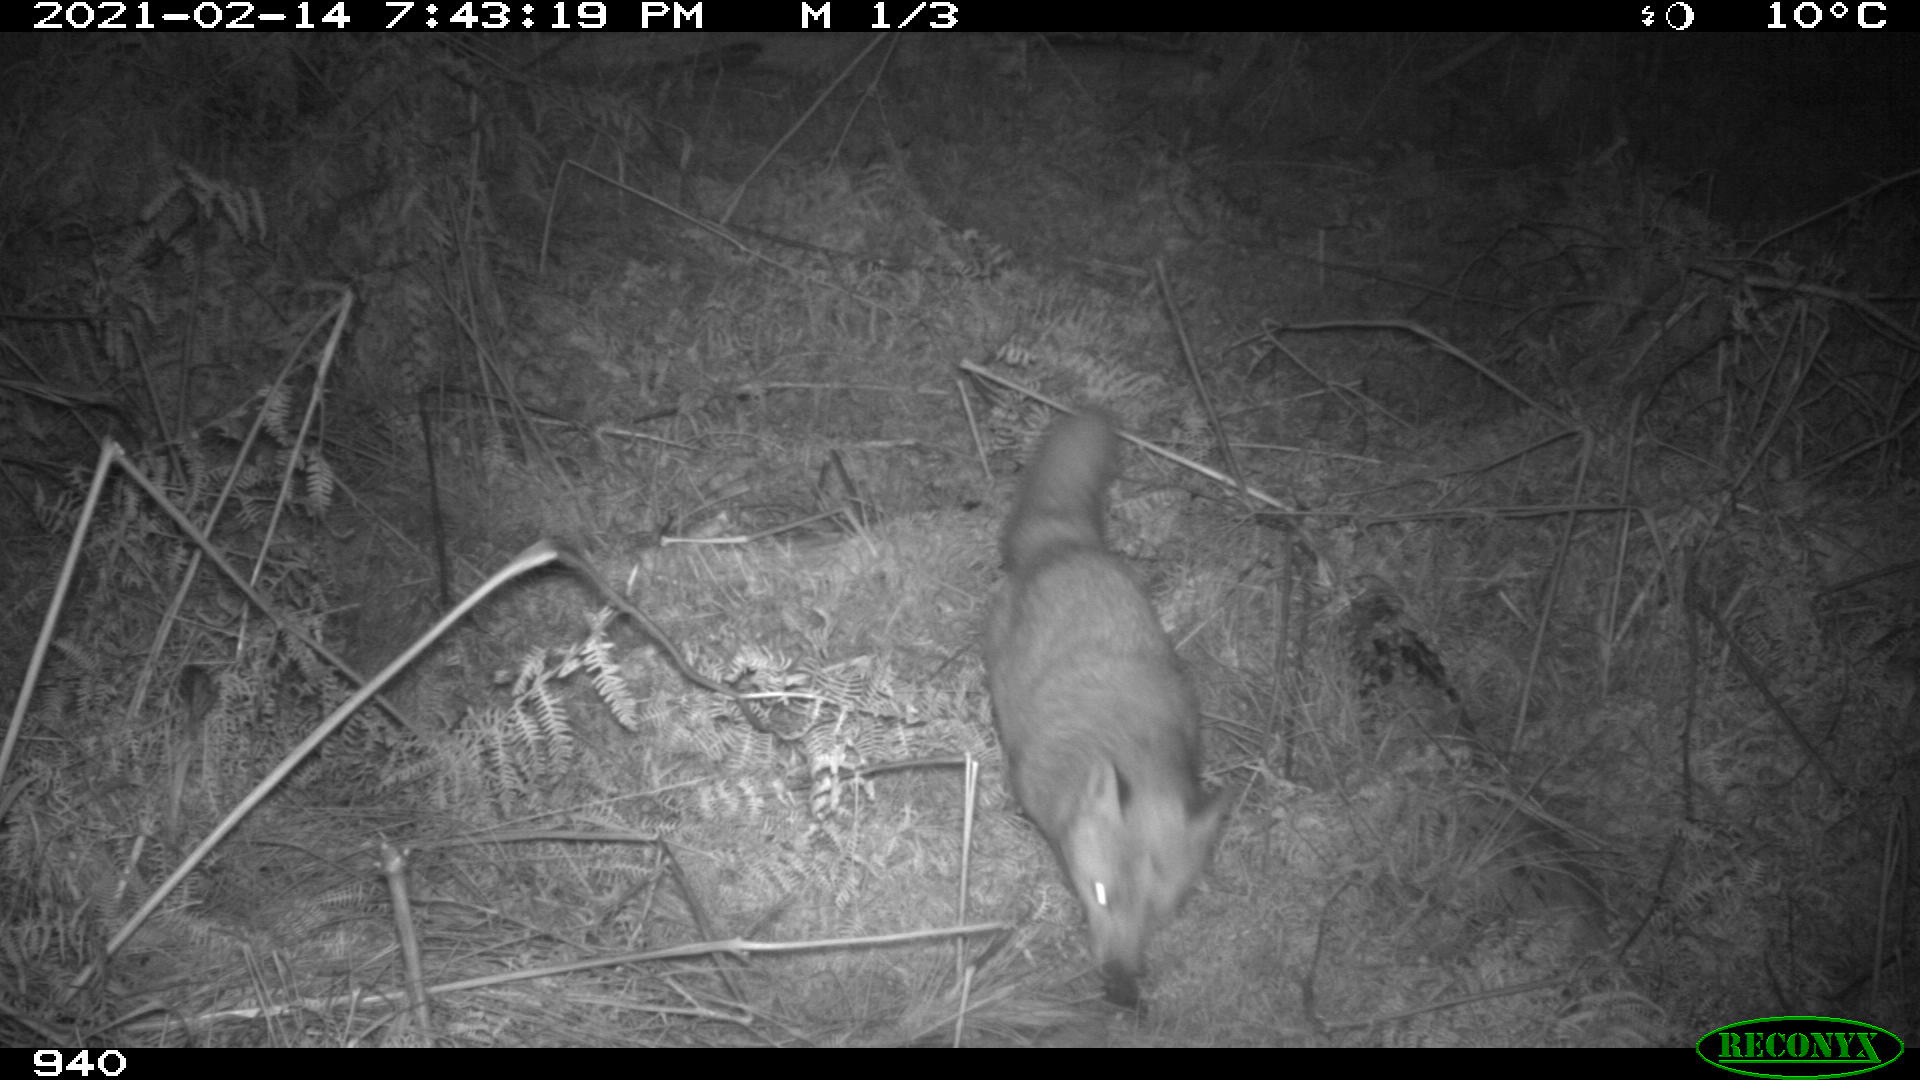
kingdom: Animalia
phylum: Chordata
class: Mammalia
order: Carnivora
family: Canidae
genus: Vulpes
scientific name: Vulpes vulpes
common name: Red fox
